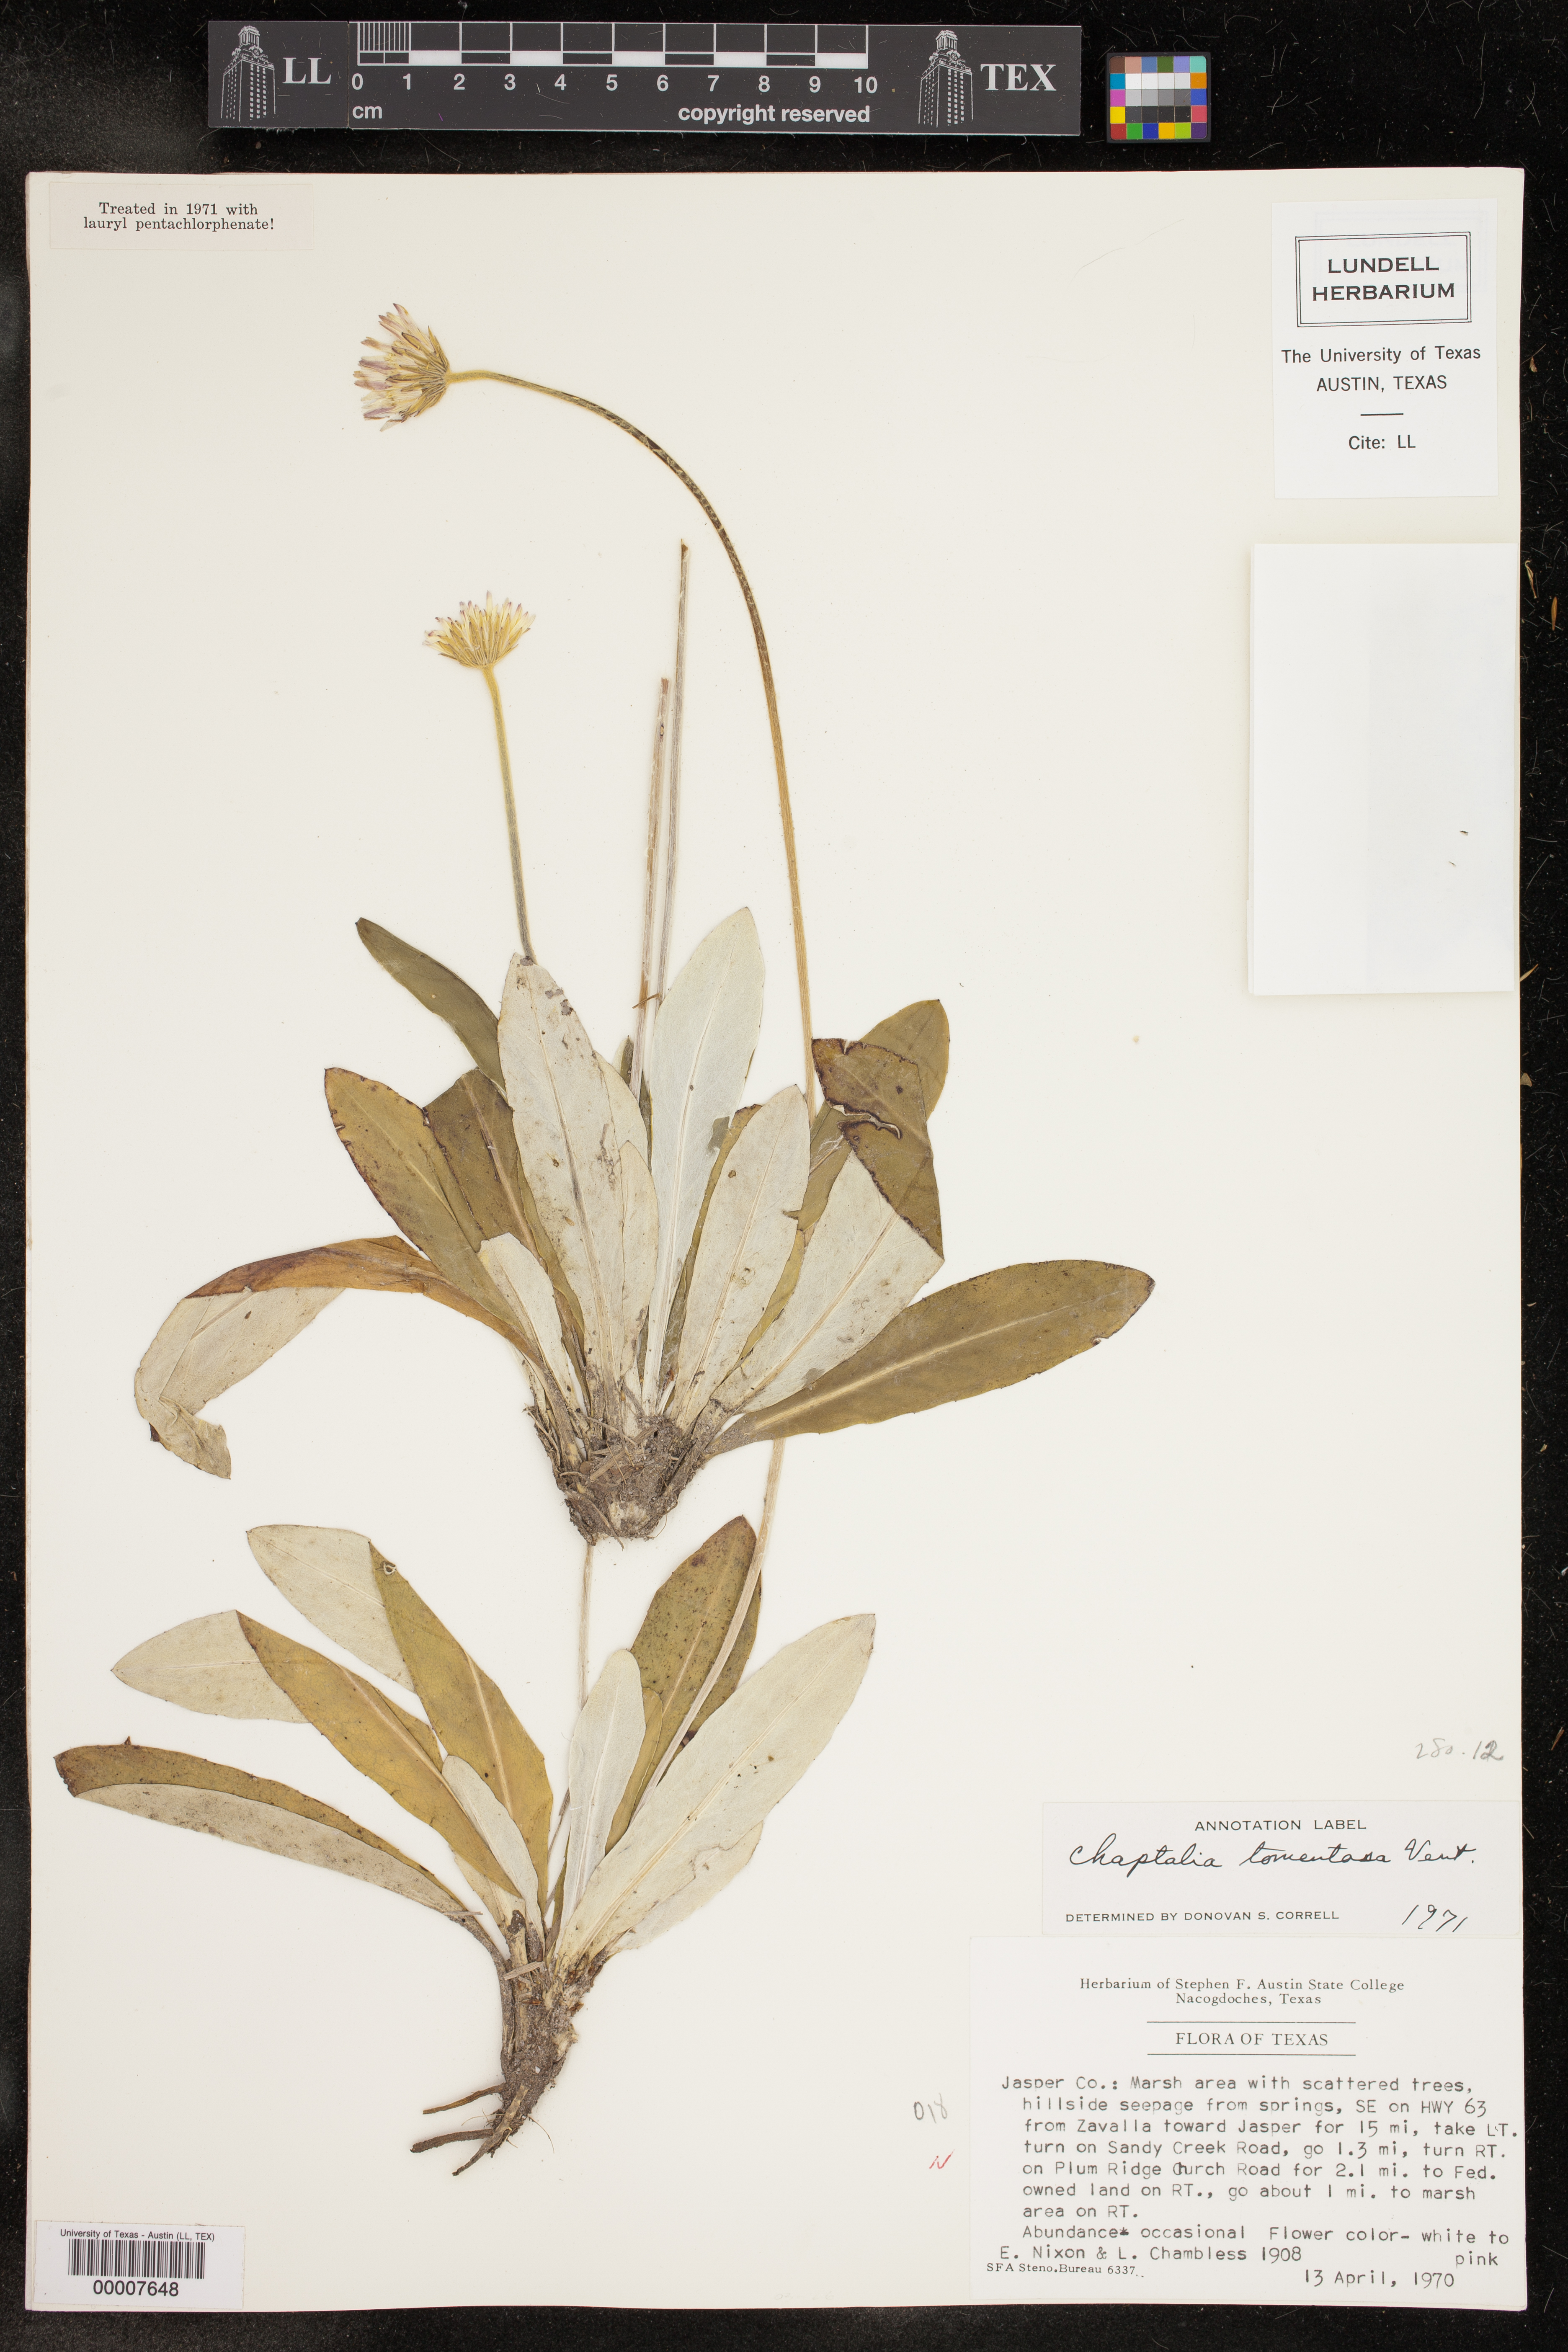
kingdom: Plantae
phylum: Tracheophyta
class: Magnoliopsida
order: Asterales
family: Asteraceae
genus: Chaptalia
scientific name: Chaptalia tomentosa
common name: Woolly sunbonnet
